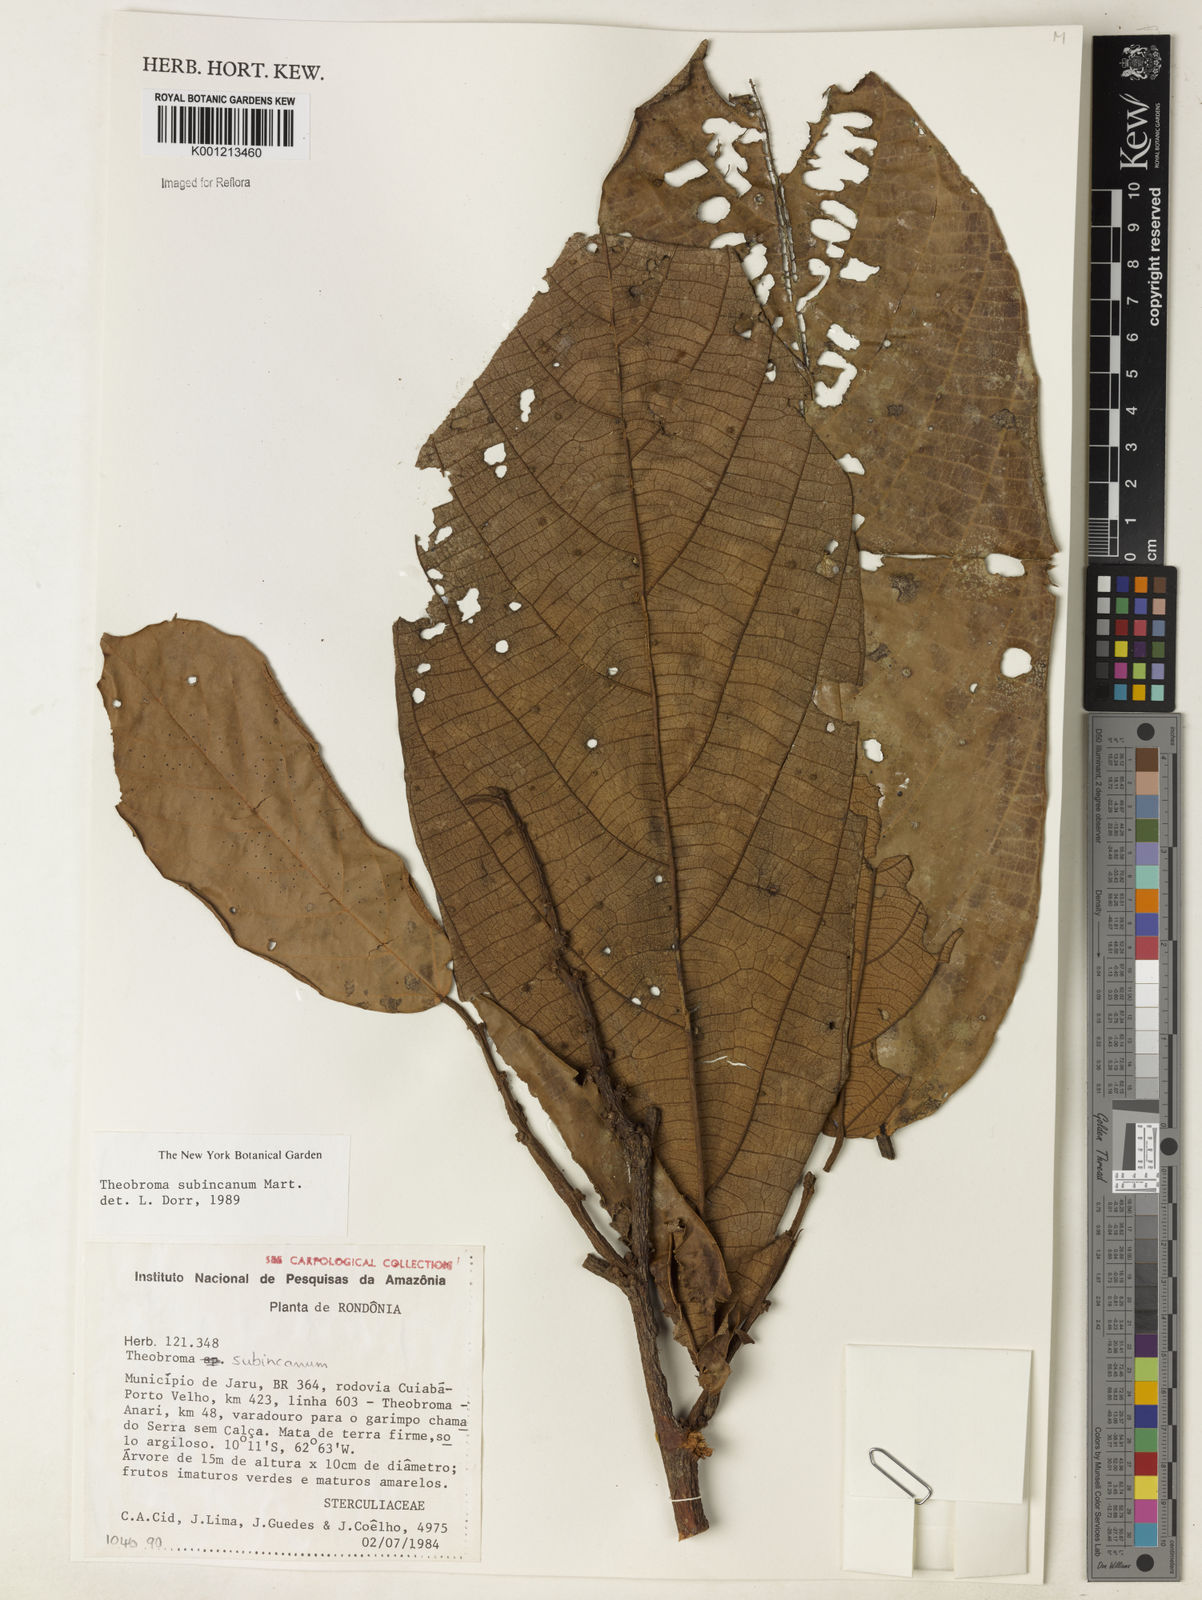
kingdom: Plantae
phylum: Tracheophyta
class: Magnoliopsida
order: Malvales
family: Malvaceae
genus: Theobroma
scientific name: Theobroma subincanum
